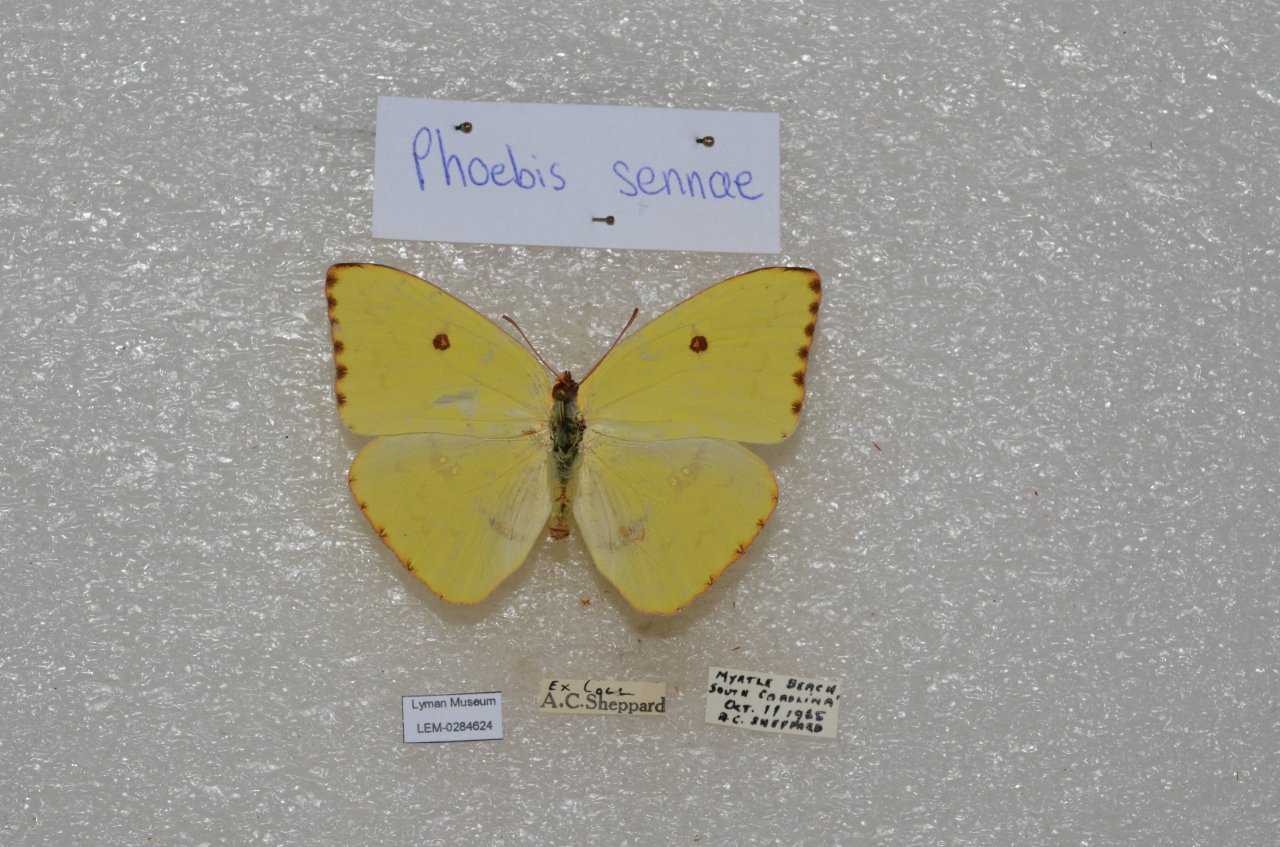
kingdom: Animalia
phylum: Arthropoda
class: Insecta
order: Lepidoptera
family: Pieridae
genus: Phoebis
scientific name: Phoebis sennae
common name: Cloudless Sulphur
